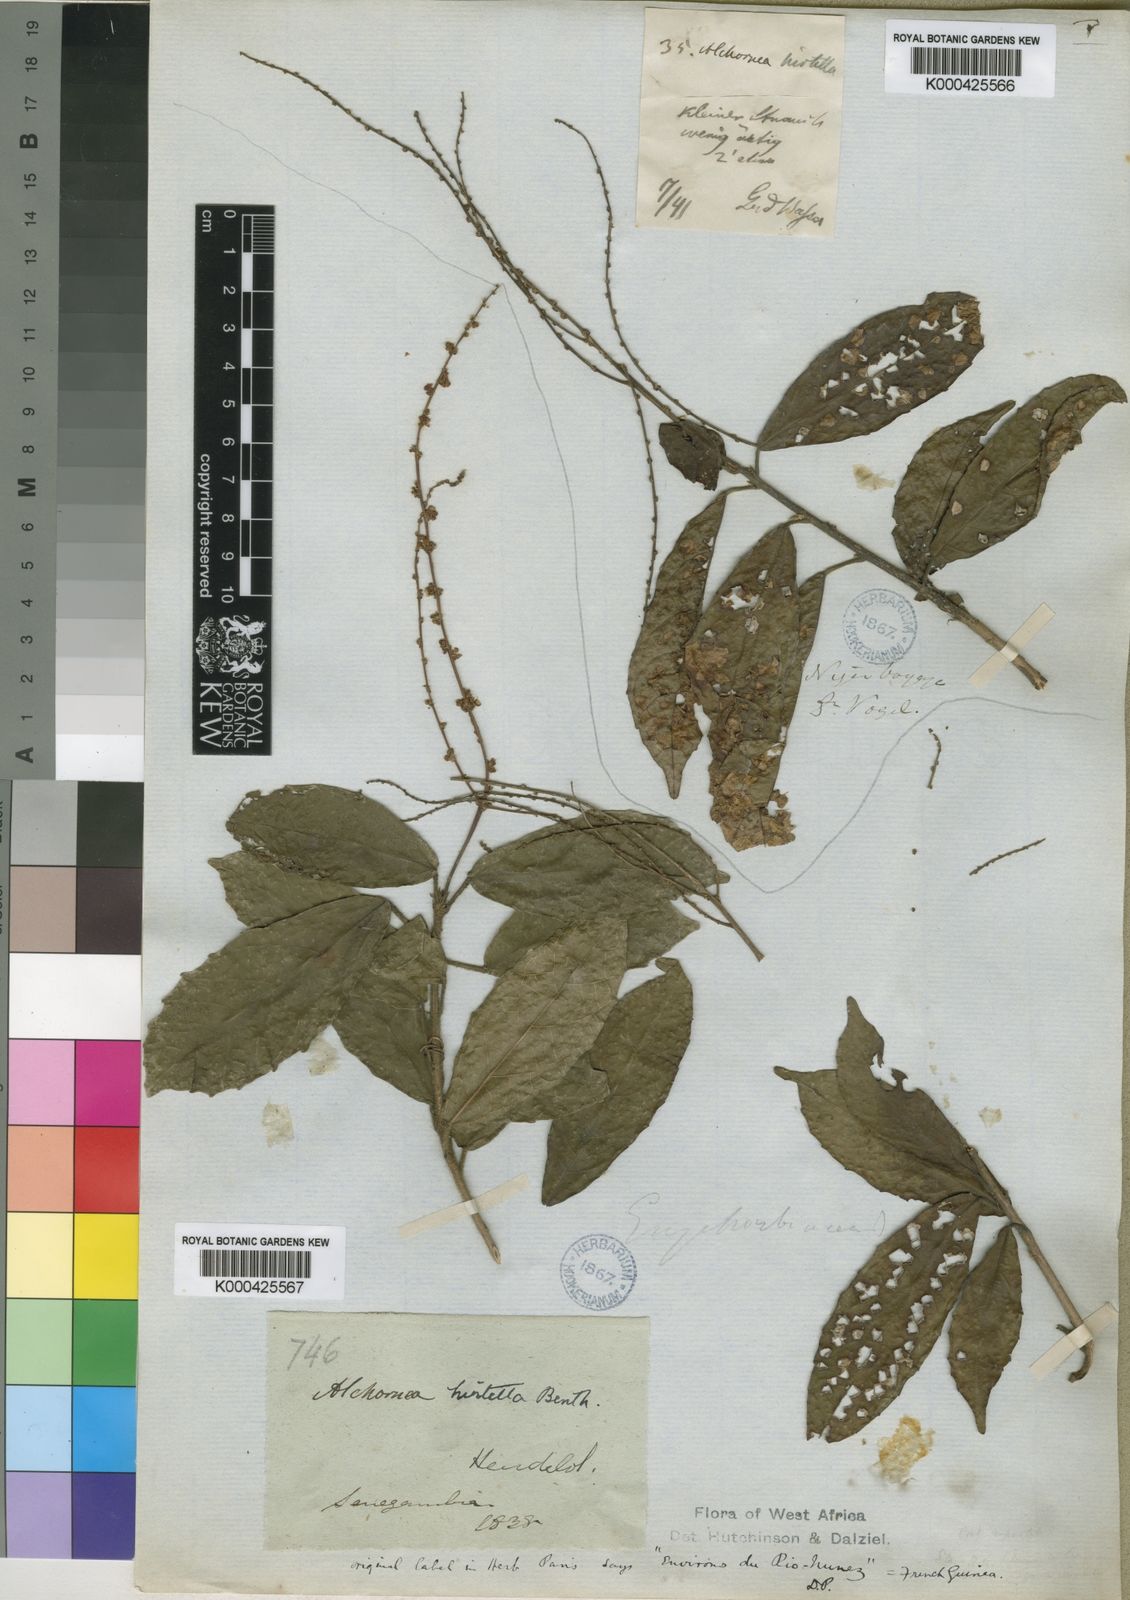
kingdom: Plantae
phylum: Tracheophyta
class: Magnoliopsida
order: Malpighiales
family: Euphorbiaceae
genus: Alchornea
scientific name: Alchornea hirtella
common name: Forest bead-string
